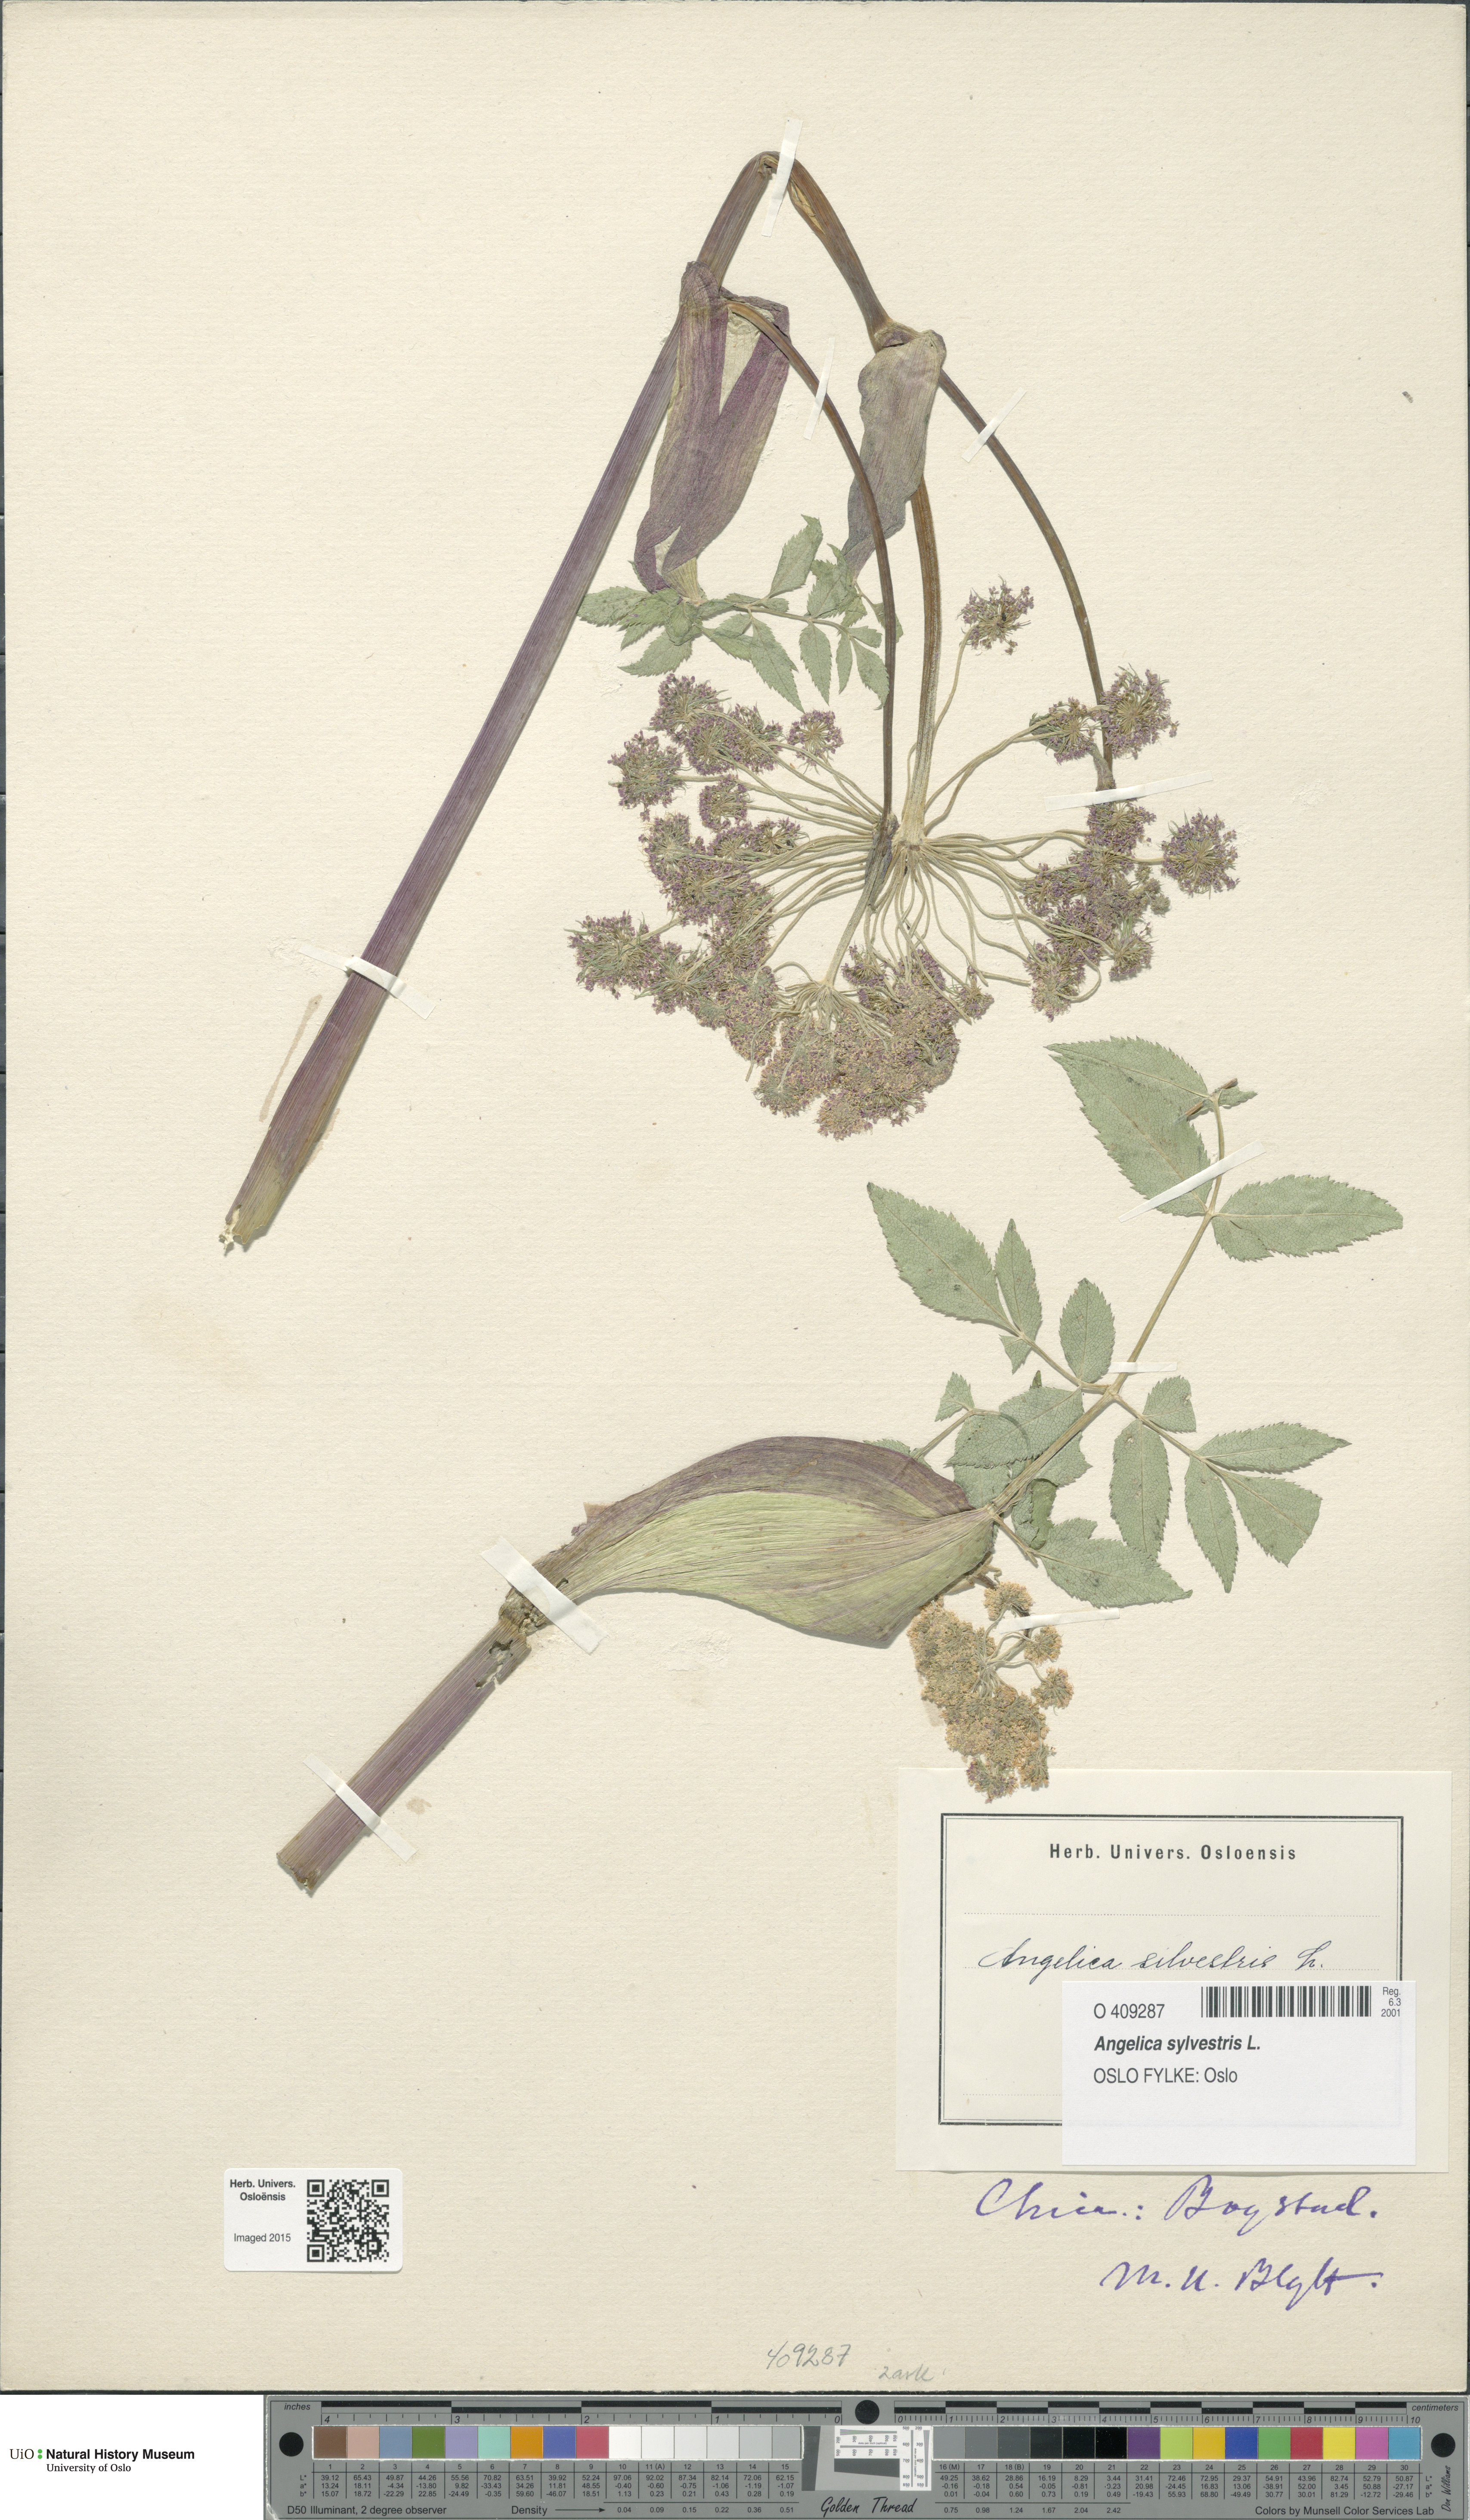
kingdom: Plantae
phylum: Tracheophyta
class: Magnoliopsida
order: Apiales
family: Apiaceae
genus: Angelica
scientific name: Angelica sylvestris
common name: Wild angelica
